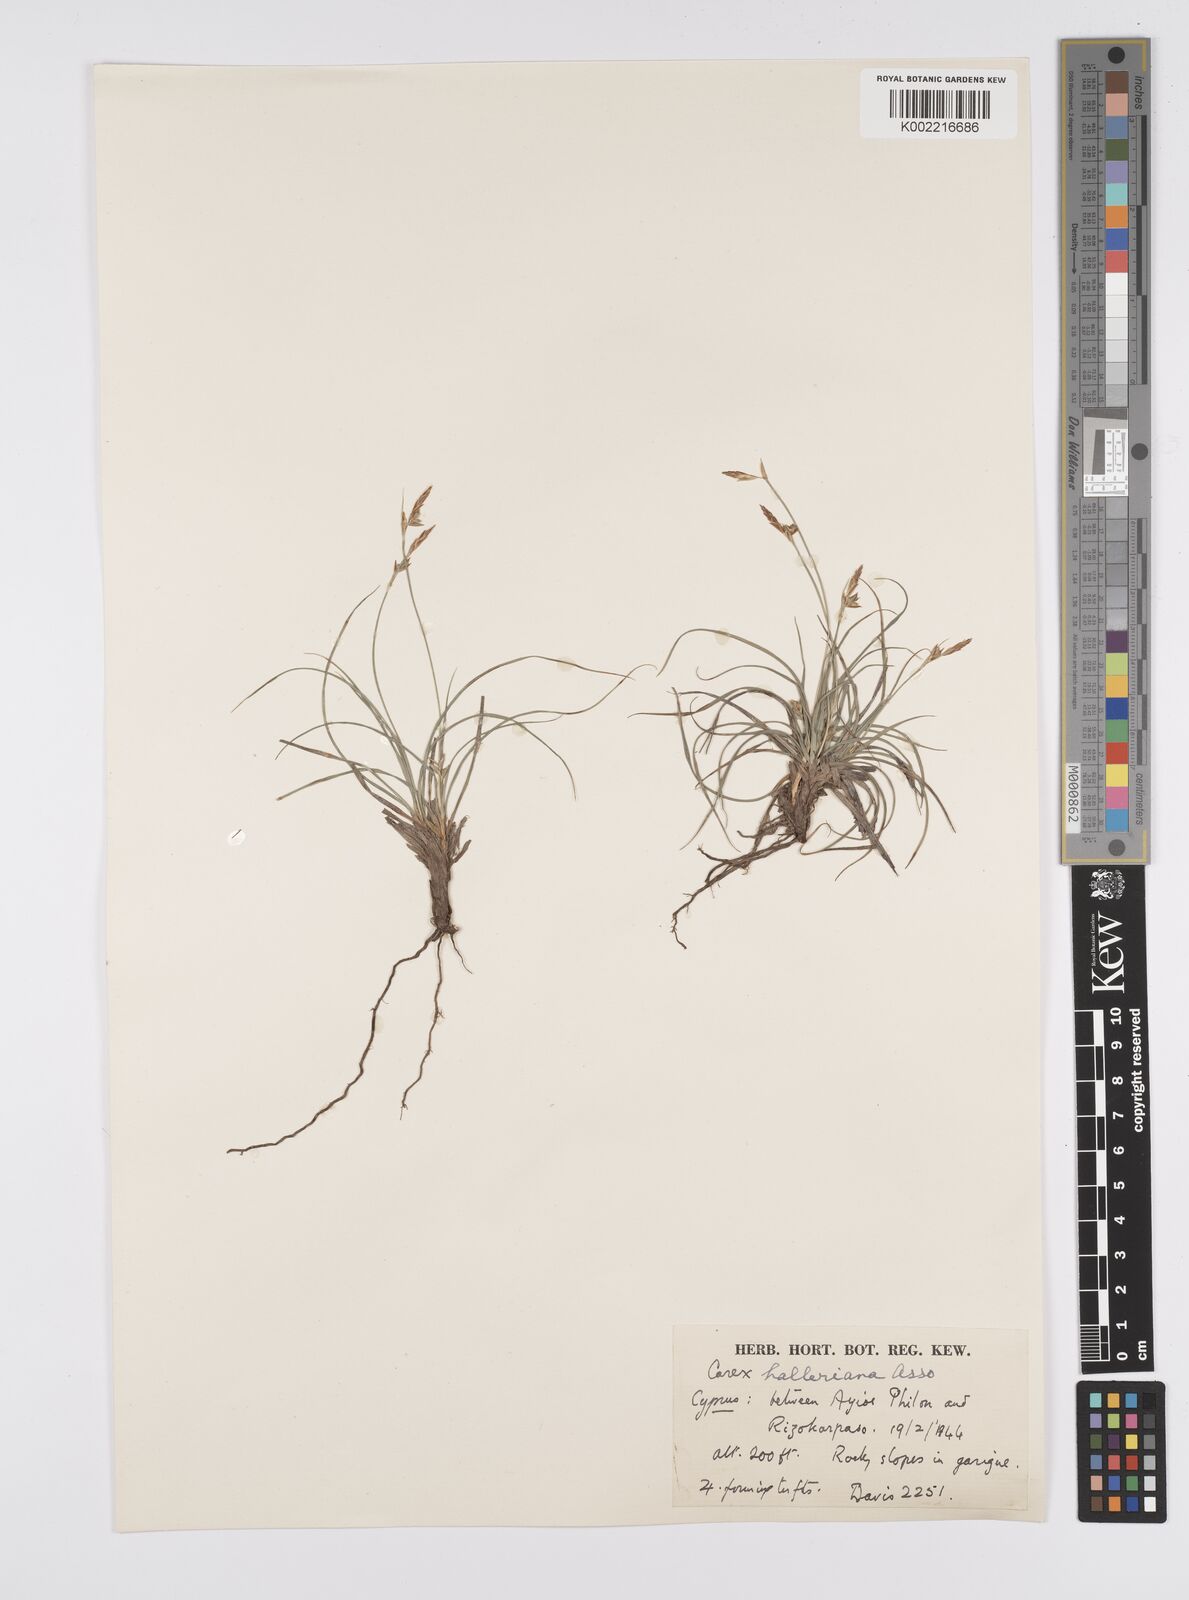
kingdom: Plantae
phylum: Tracheophyta
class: Liliopsida
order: Poales
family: Cyperaceae
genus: Carex
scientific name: Carex halleriana
